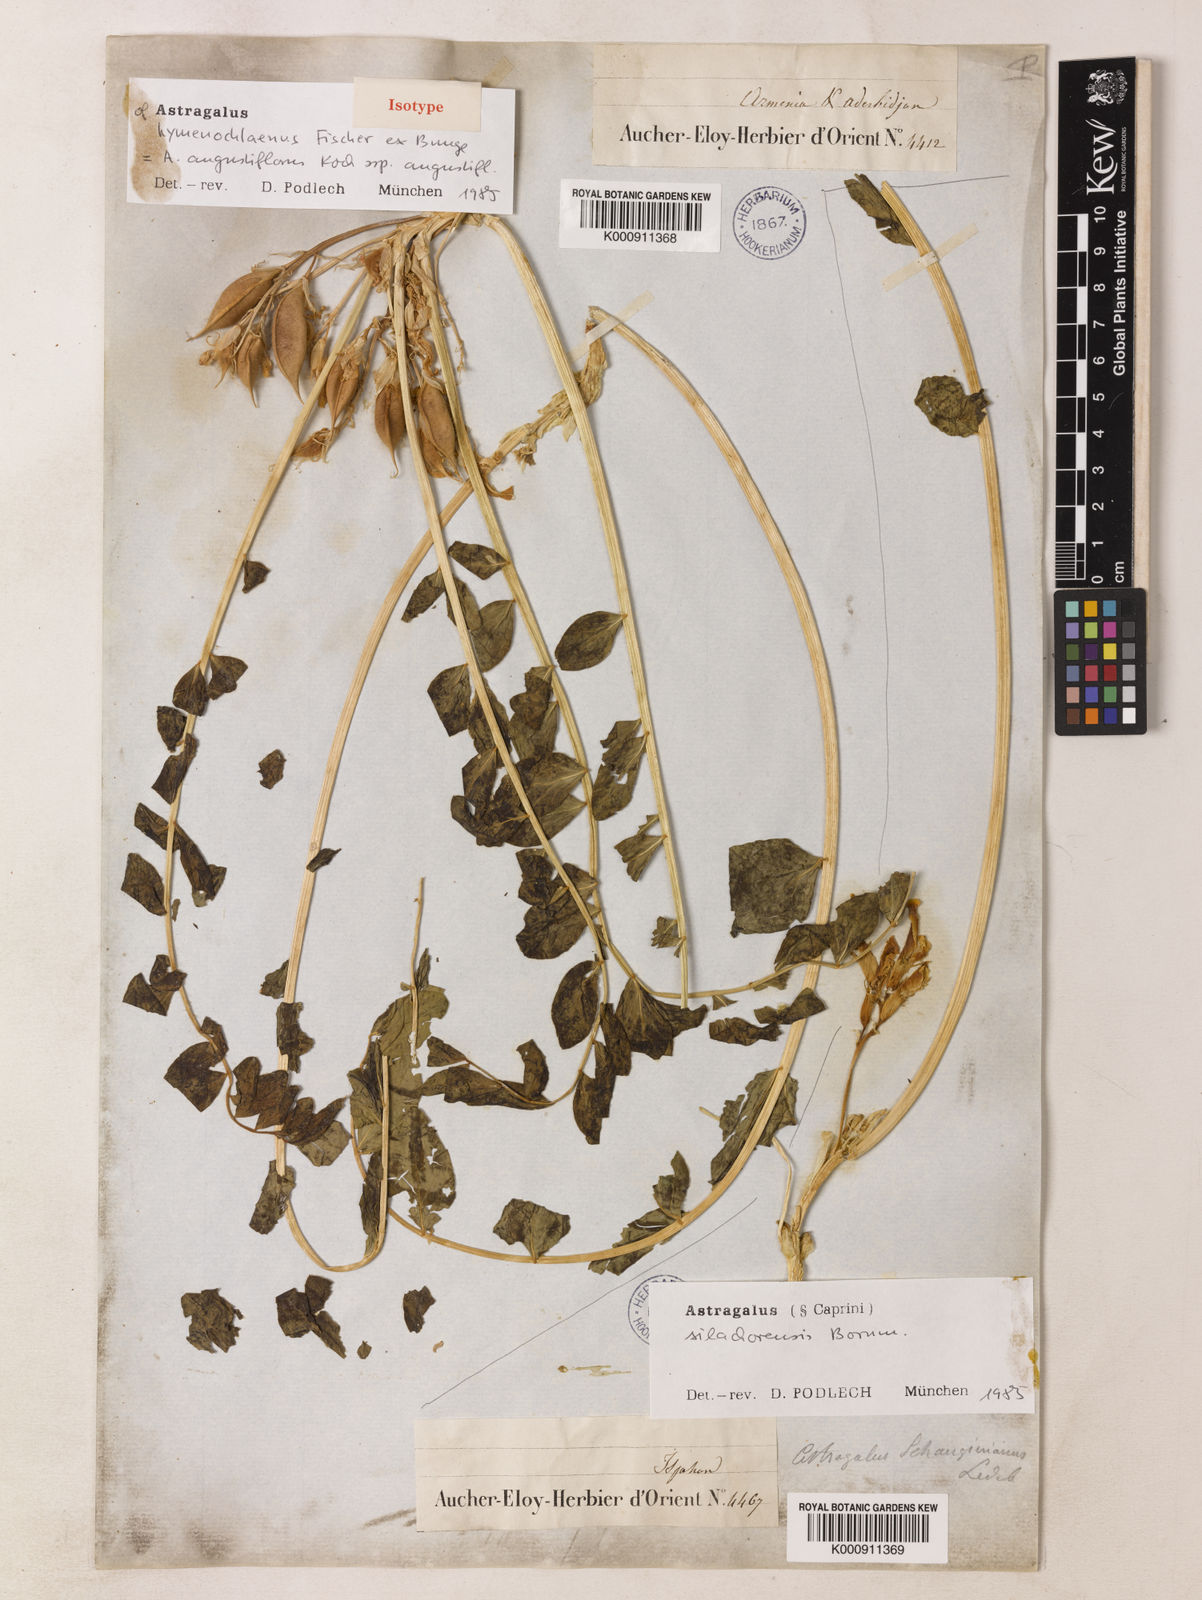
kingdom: Plantae
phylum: Tracheophyta
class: Magnoliopsida
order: Fabales
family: Fabaceae
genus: Astragalus
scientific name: Astragalus angustiflorus
